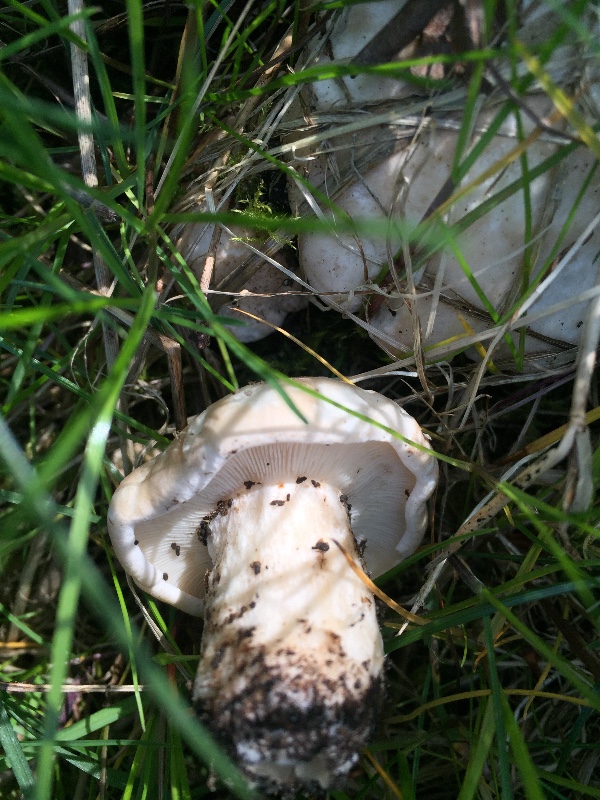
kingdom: Fungi
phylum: Basidiomycota
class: Agaricomycetes
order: Agaricales
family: Lyophyllaceae
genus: Calocybe
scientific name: Calocybe gambosa
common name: vårmusseron
